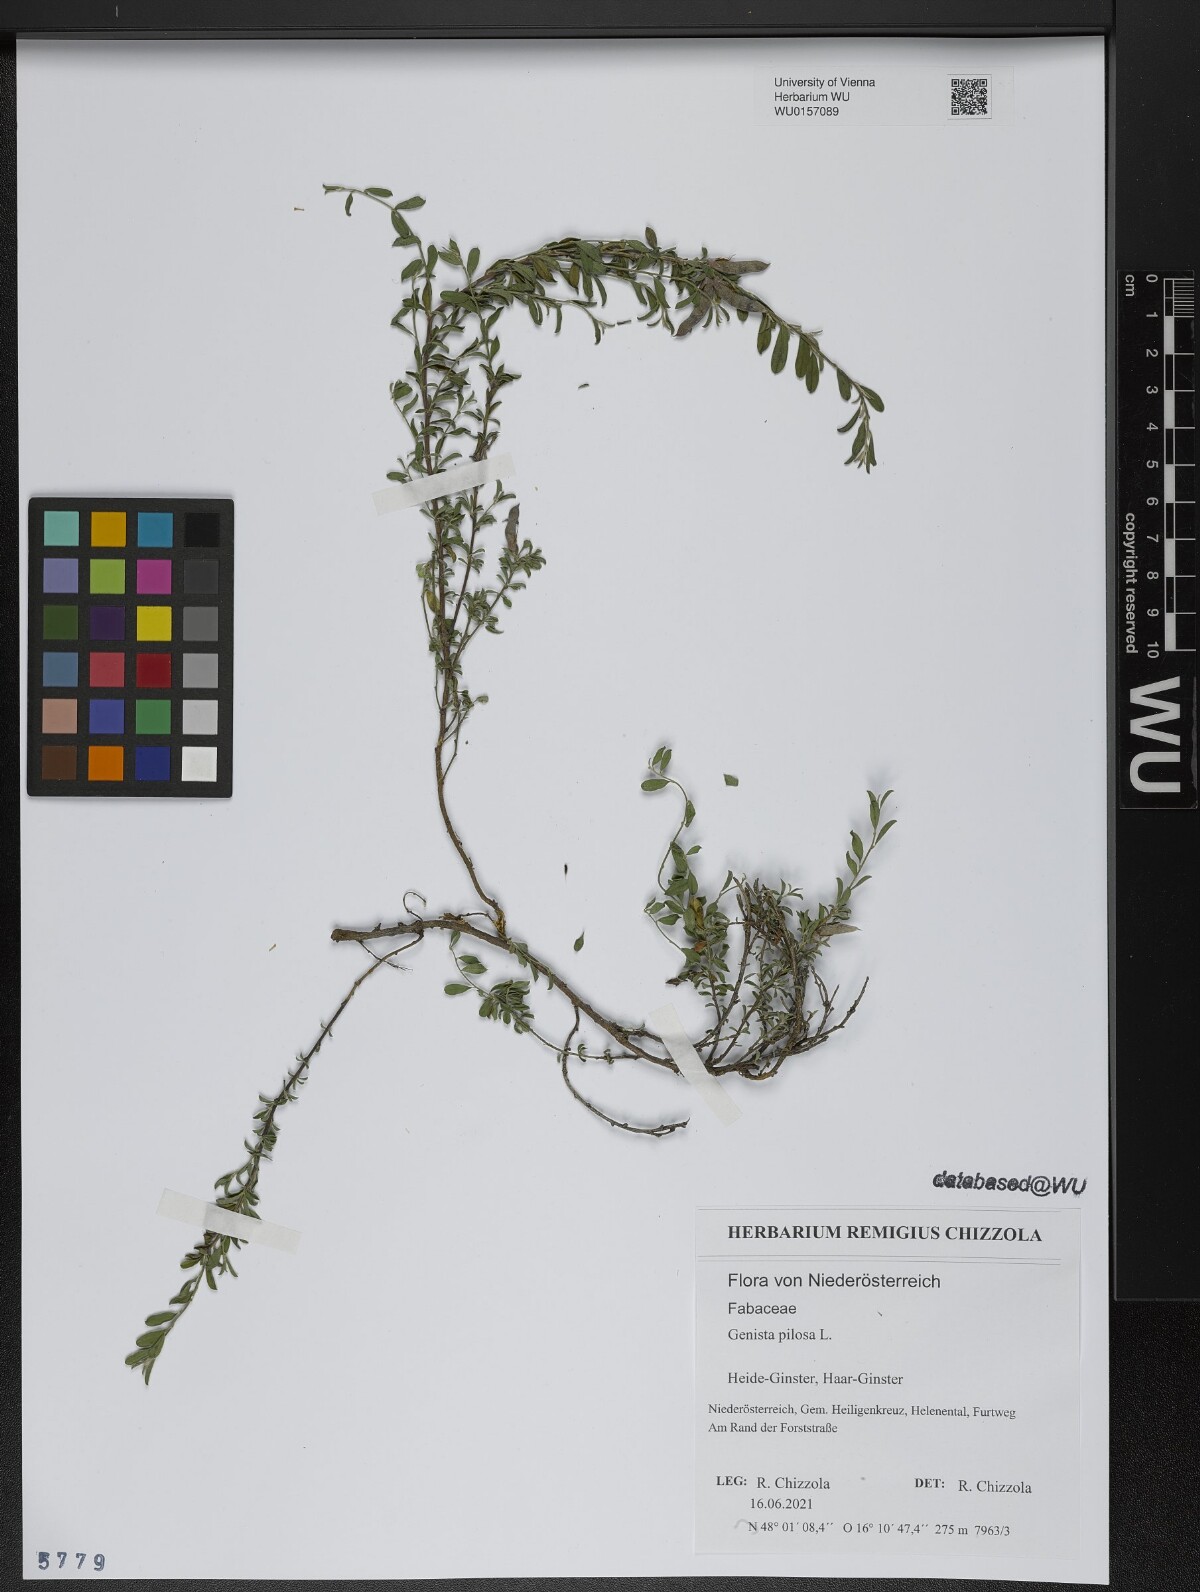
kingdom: Plantae
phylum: Tracheophyta
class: Magnoliopsida
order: Fabales
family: Fabaceae
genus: Genista
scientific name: Genista pilosa
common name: Hairy greenweed
